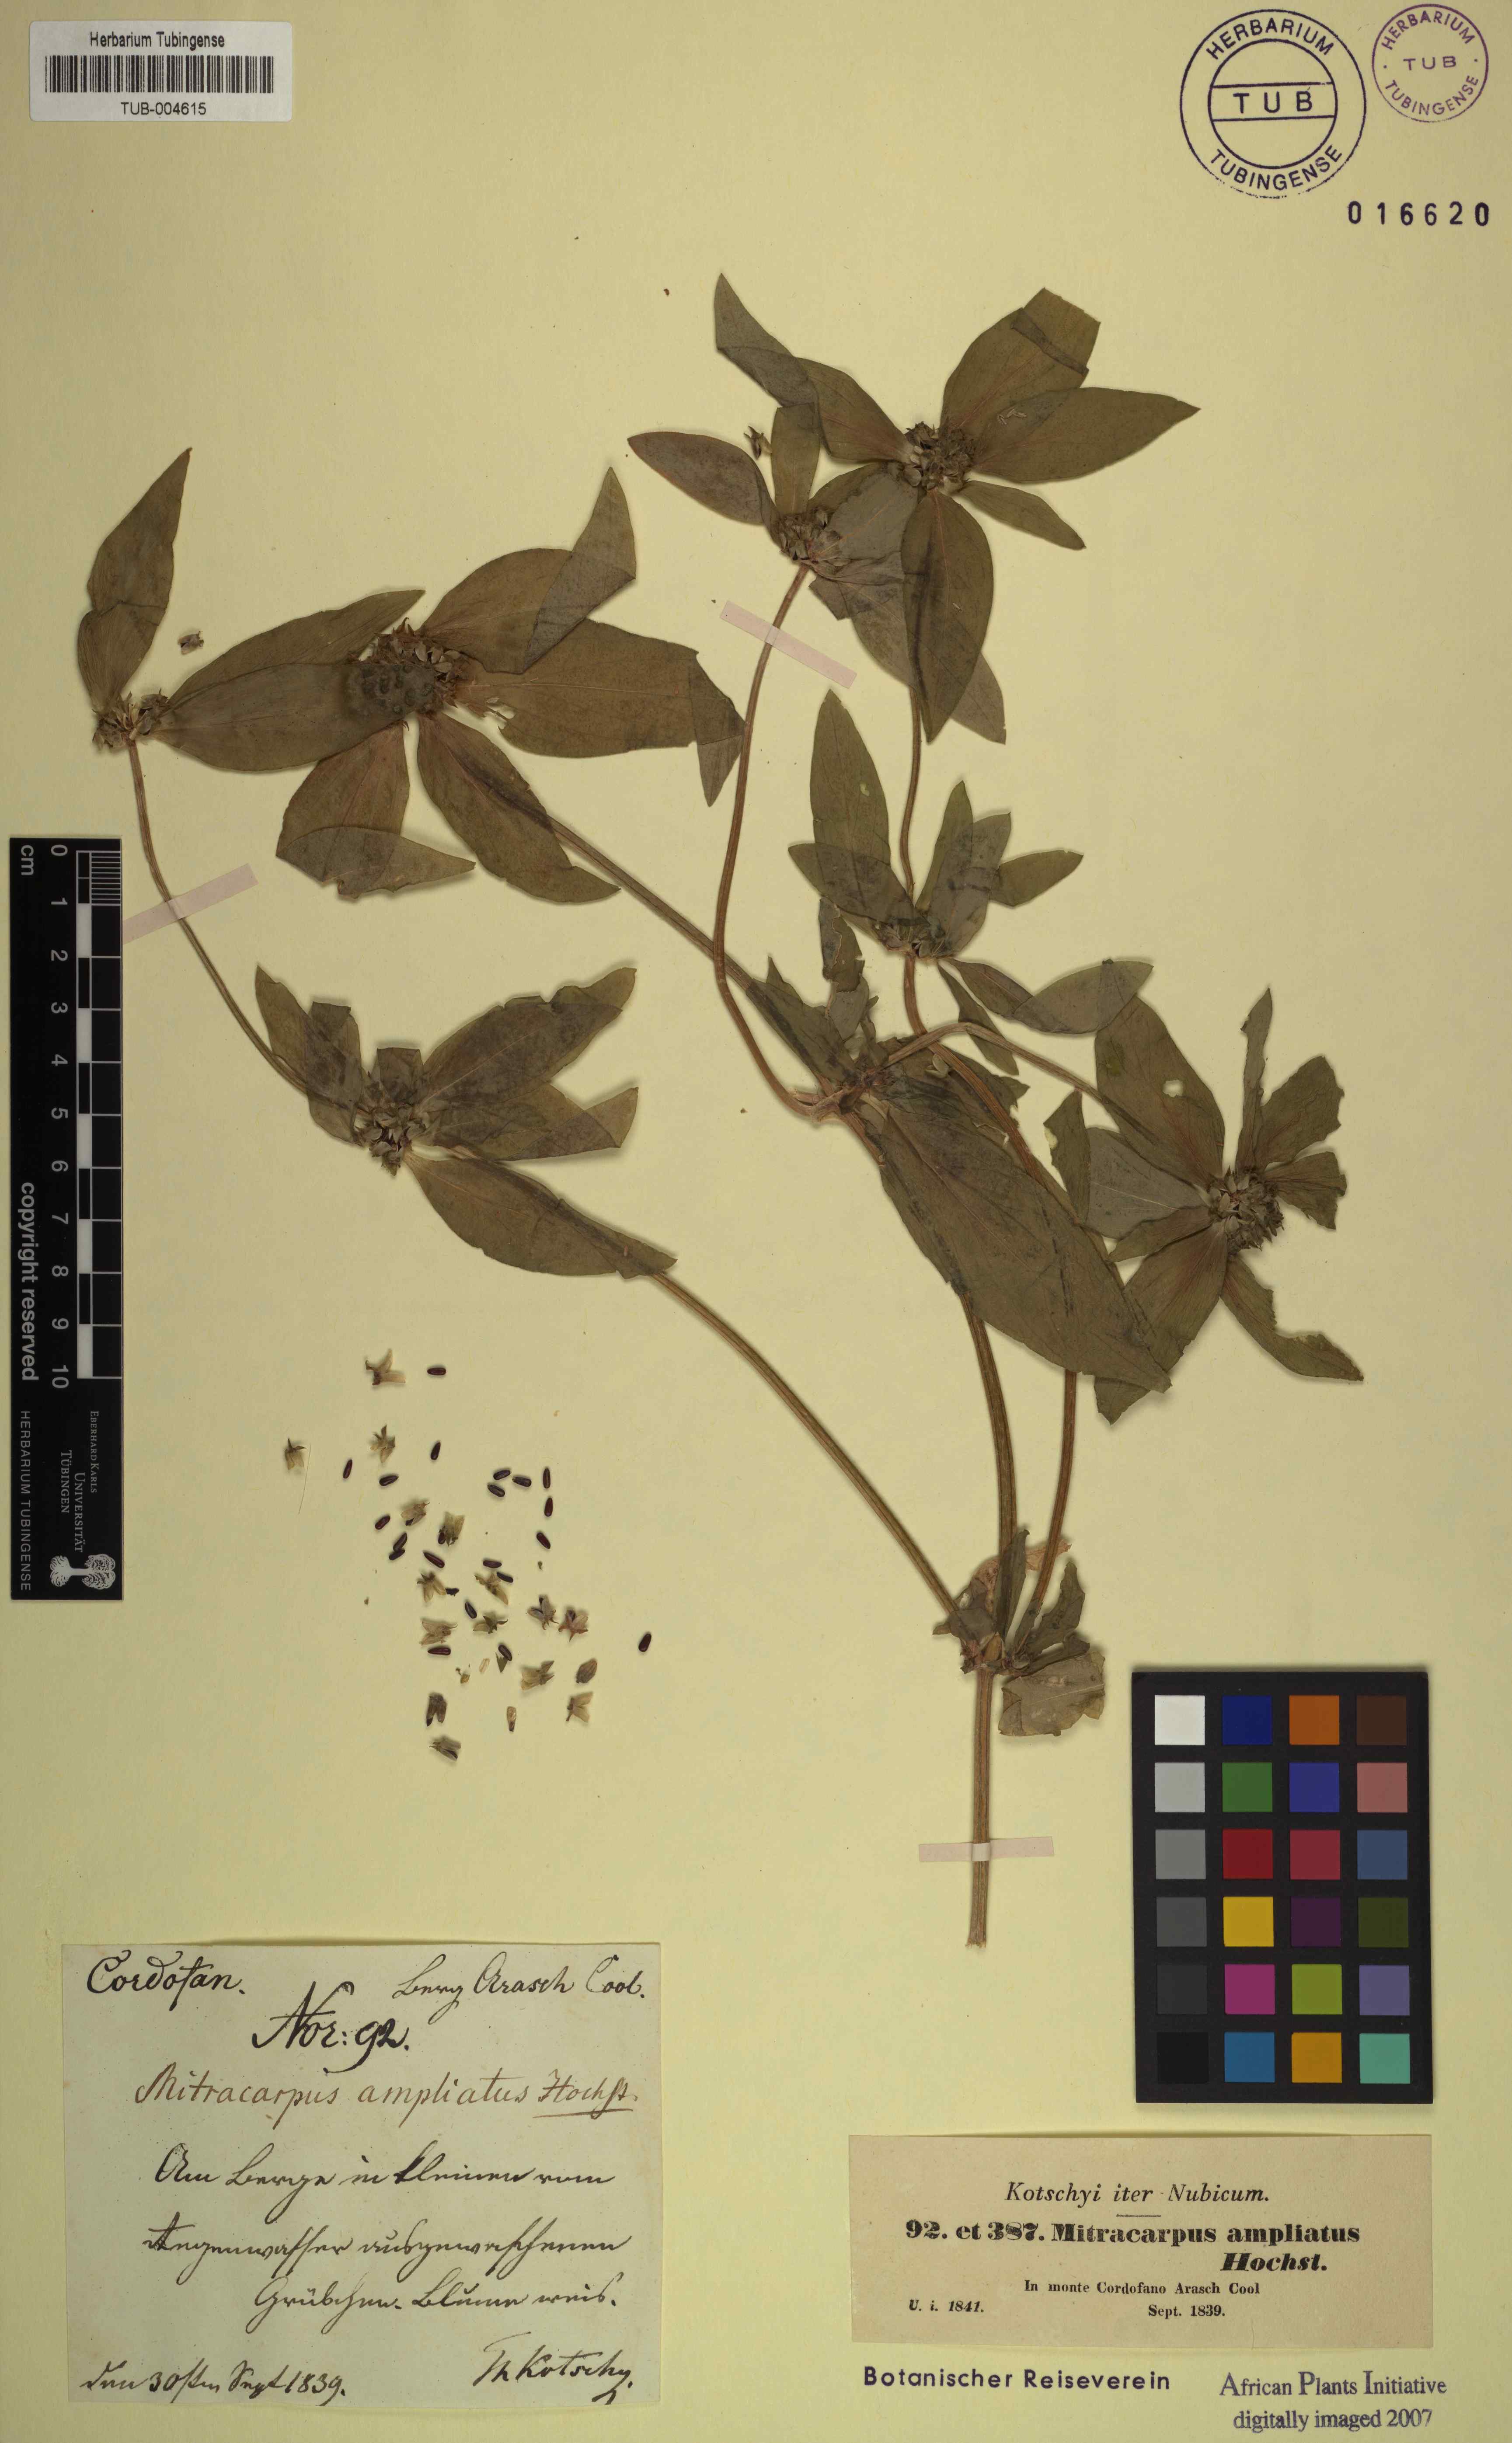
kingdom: Plantae
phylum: Tracheophyta
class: Magnoliopsida
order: Gentianales
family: Rubiaceae
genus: Spermacoce
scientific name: Spermacoce sphaerostigma
